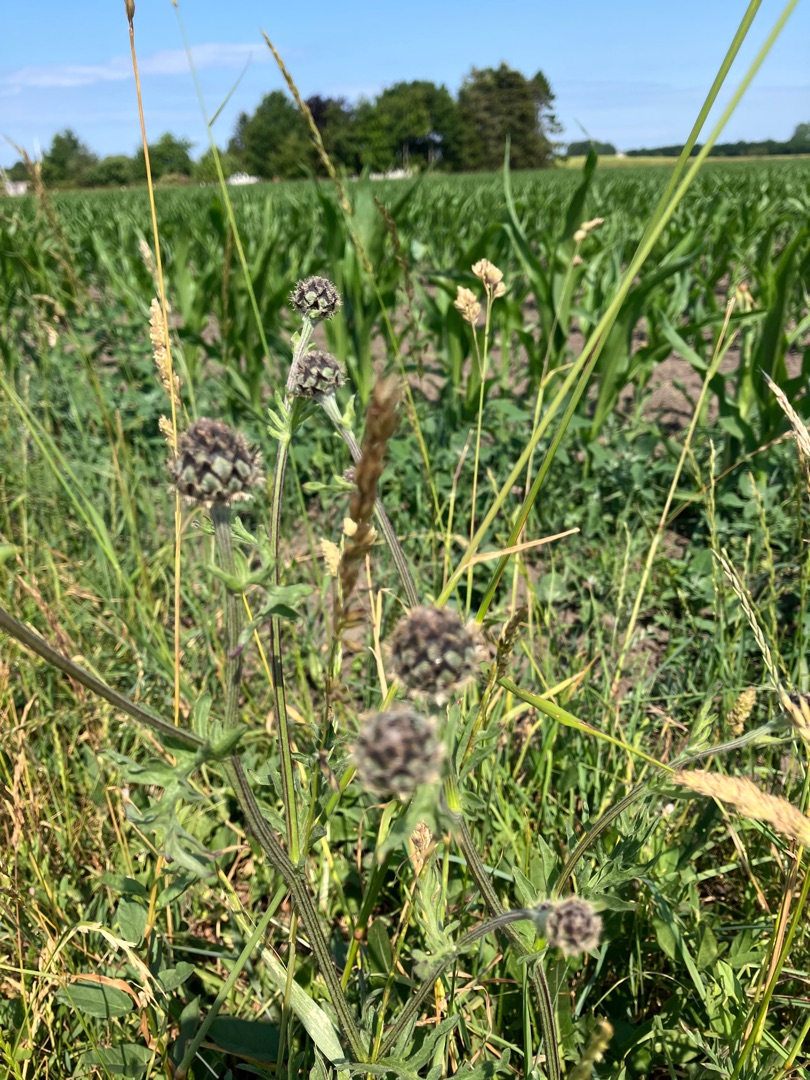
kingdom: Plantae
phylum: Tracheophyta
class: Magnoliopsida
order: Asterales
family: Asteraceae
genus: Centaurea
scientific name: Centaurea scabiosa
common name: Stor knopurt
